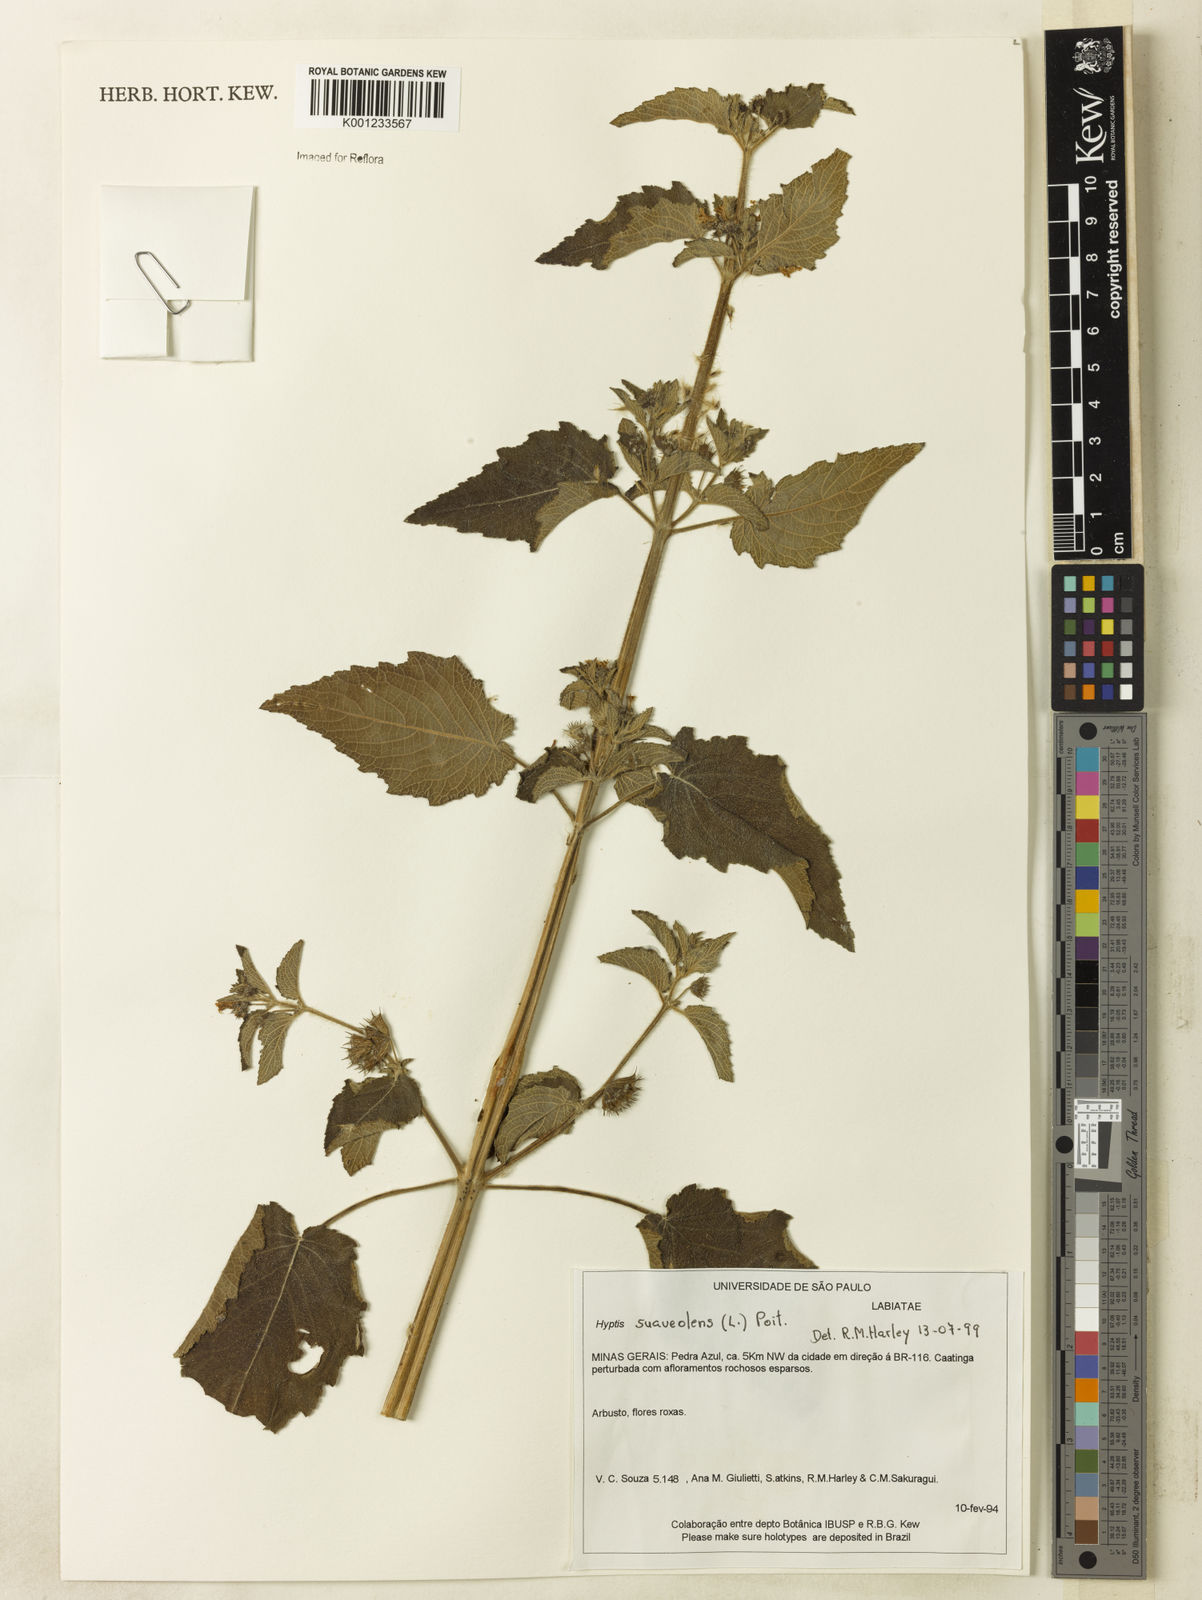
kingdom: Plantae
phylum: Tracheophyta
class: Magnoliopsida
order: Lamiales
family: Lamiaceae
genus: Mesosphaerum
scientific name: Mesosphaerum suaveolens
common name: Pignut
